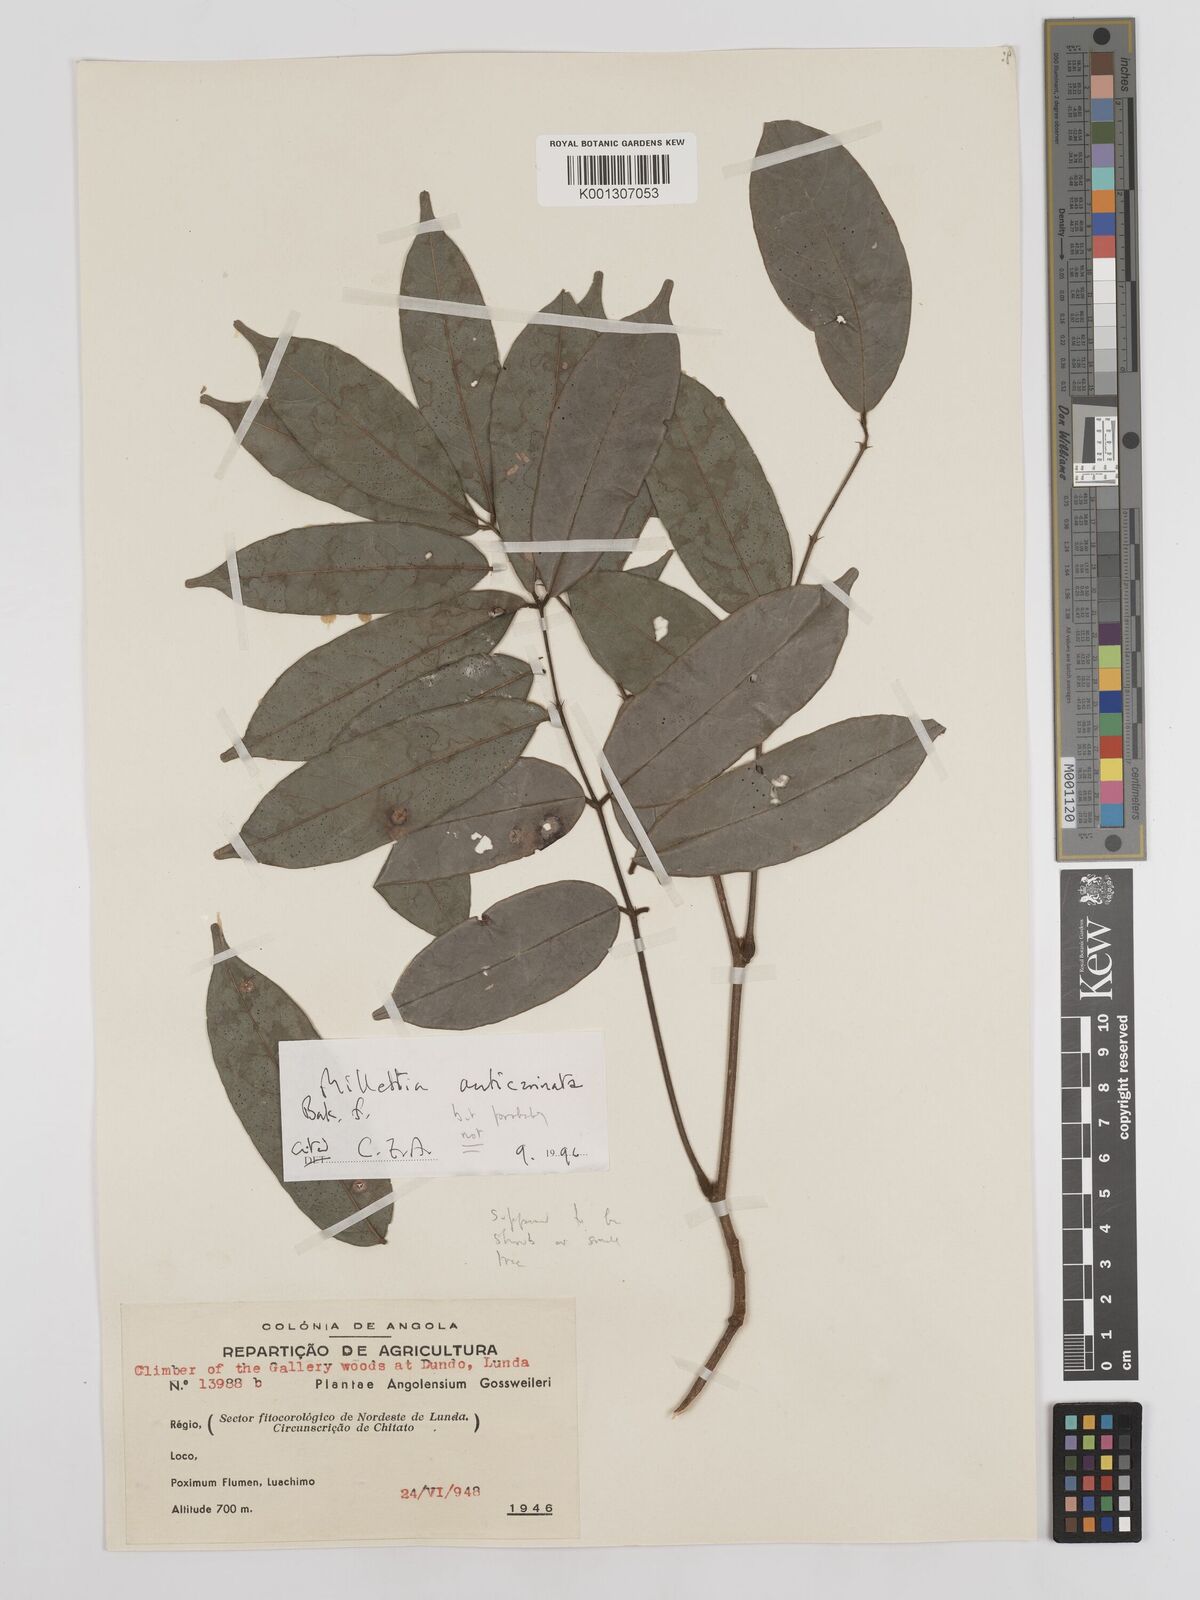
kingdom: Plantae
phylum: Tracheophyta
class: Magnoliopsida
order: Fabales
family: Fabaceae
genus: Millettia
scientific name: Millettia
